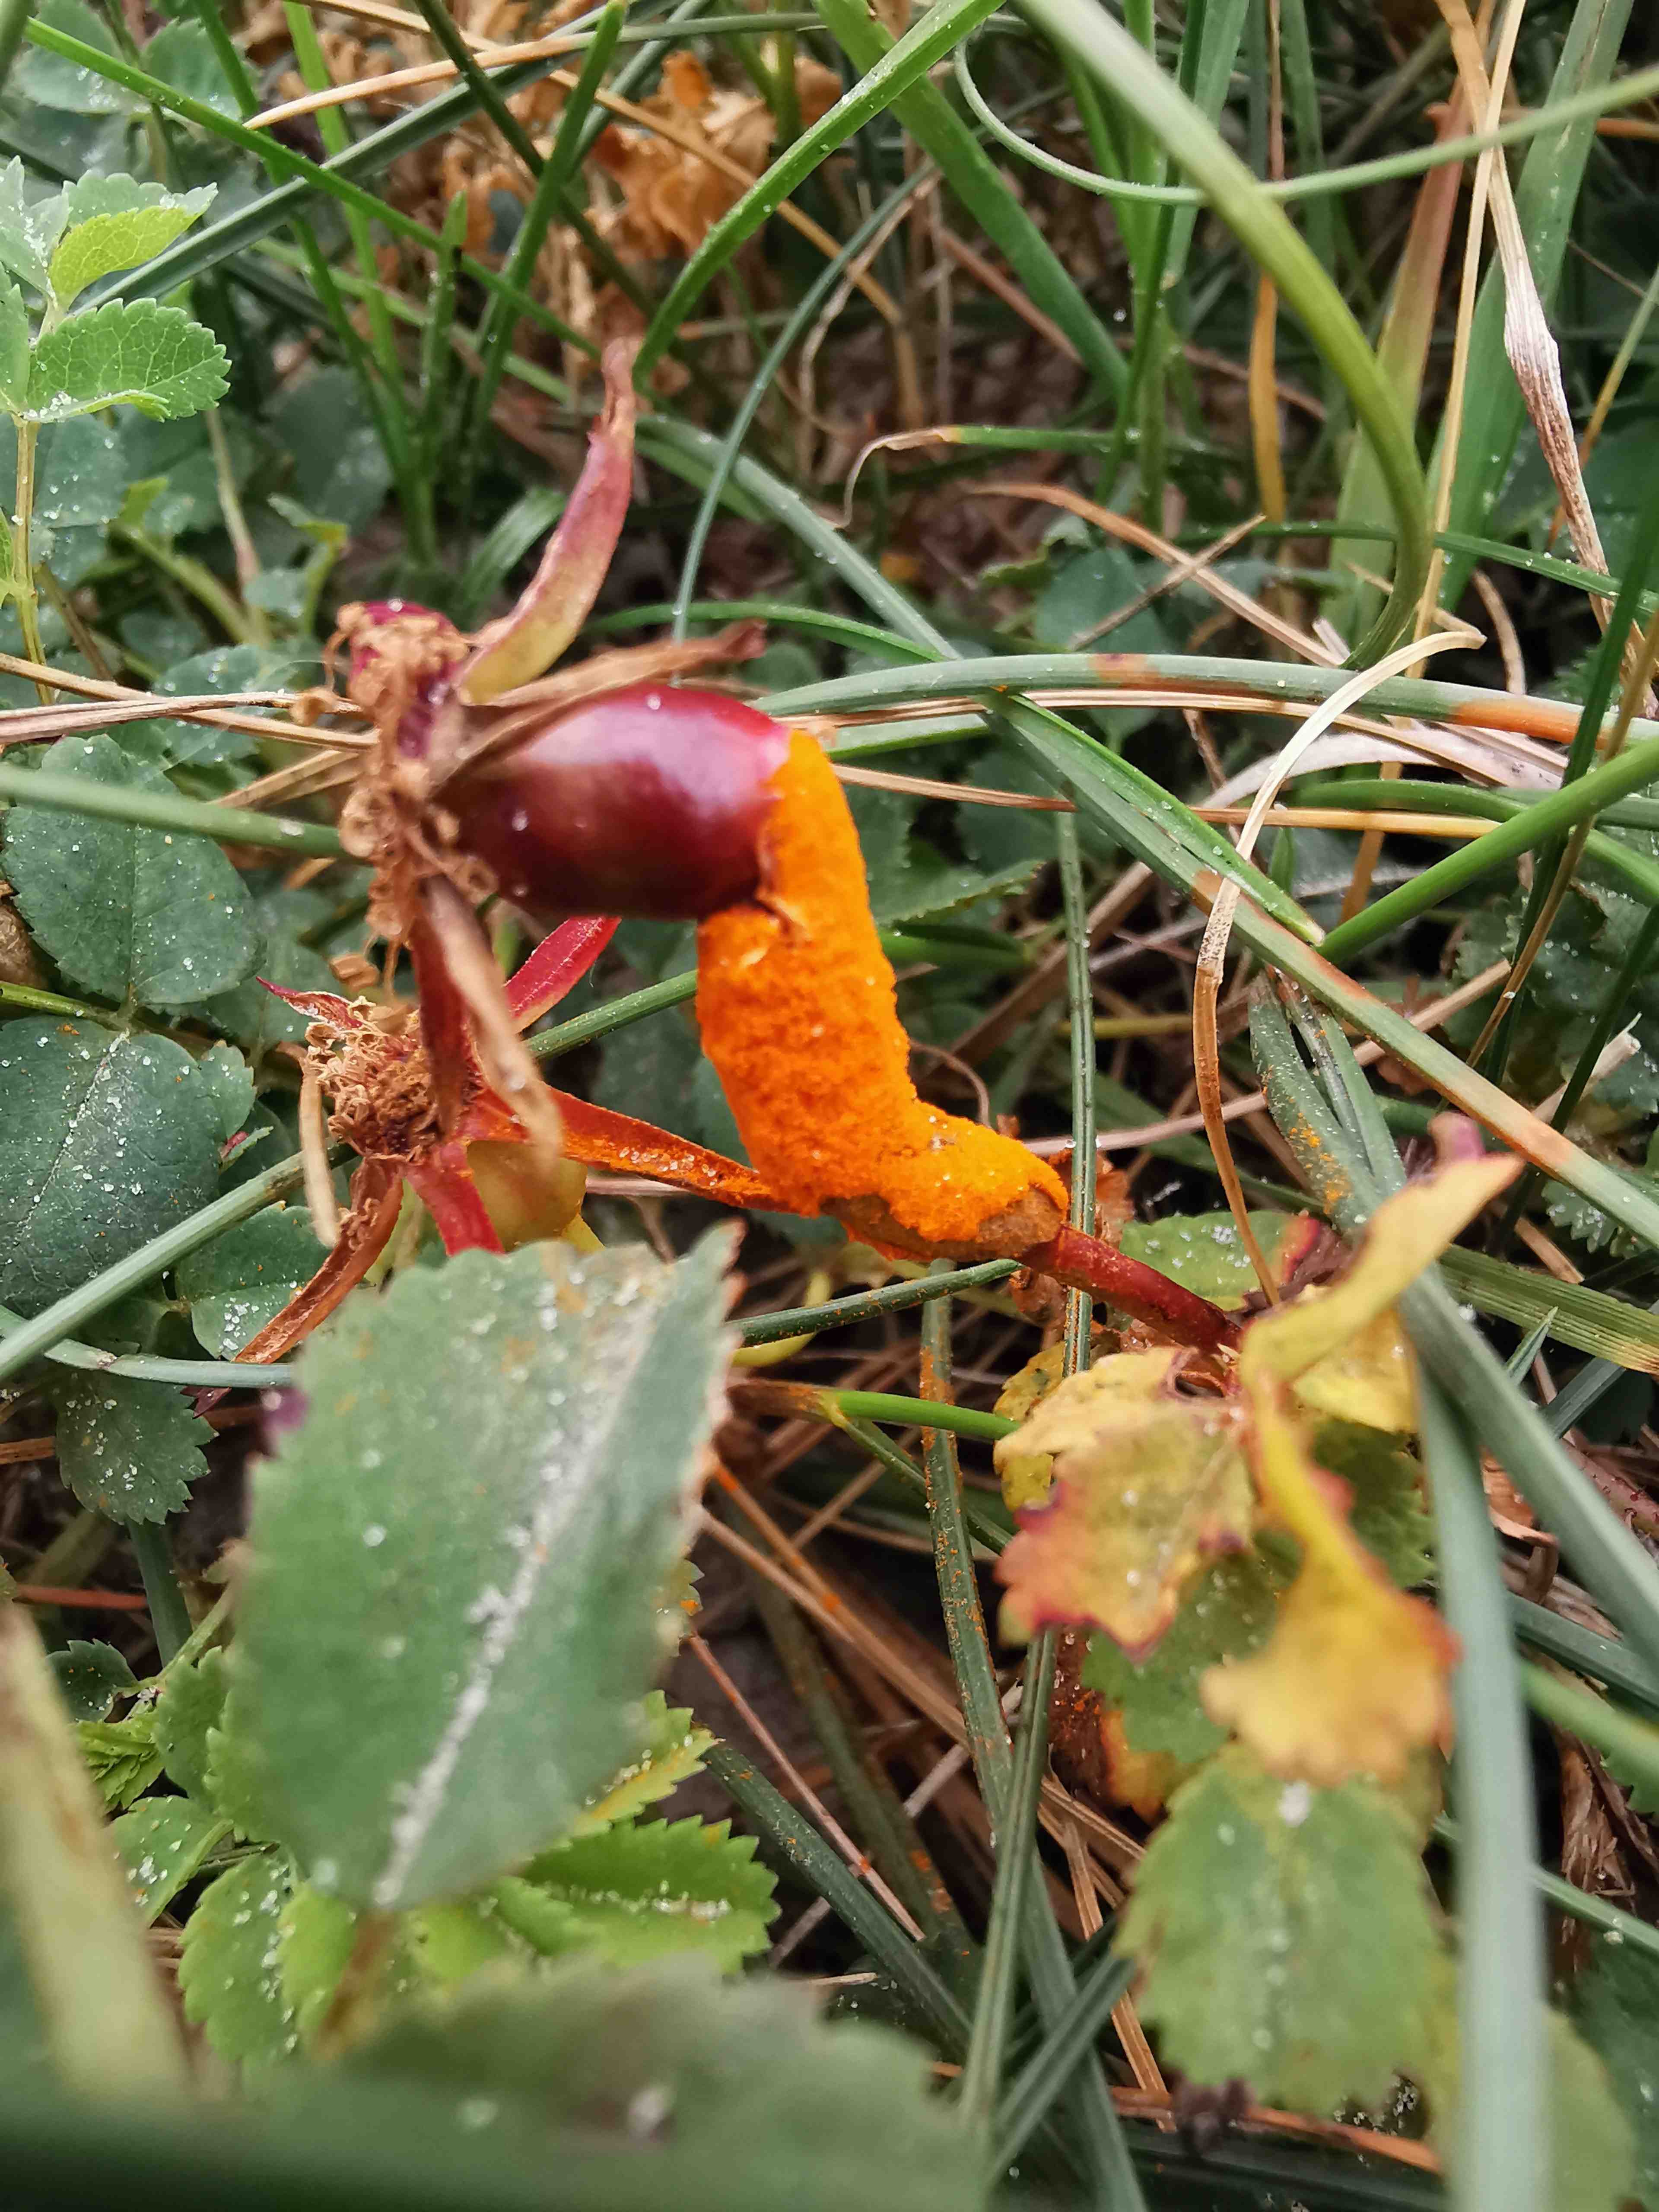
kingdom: Fungi
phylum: Basidiomycota
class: Pucciniomycetes
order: Pucciniales
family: Phragmidiaceae
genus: Phragmidium
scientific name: Phragmidium rosae-pimpinellifoliae
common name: Burnet rose rust
